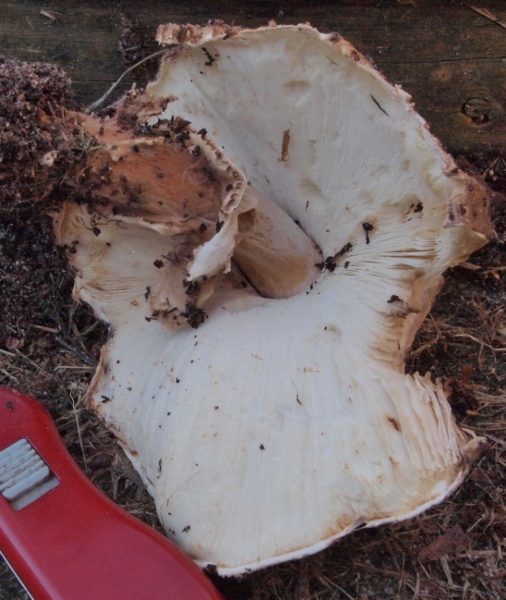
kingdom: Fungi
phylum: Basidiomycota
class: Agaricomycetes
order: Agaricales
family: Agaricaceae
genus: Echinoderma
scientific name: Echinoderma asperum
